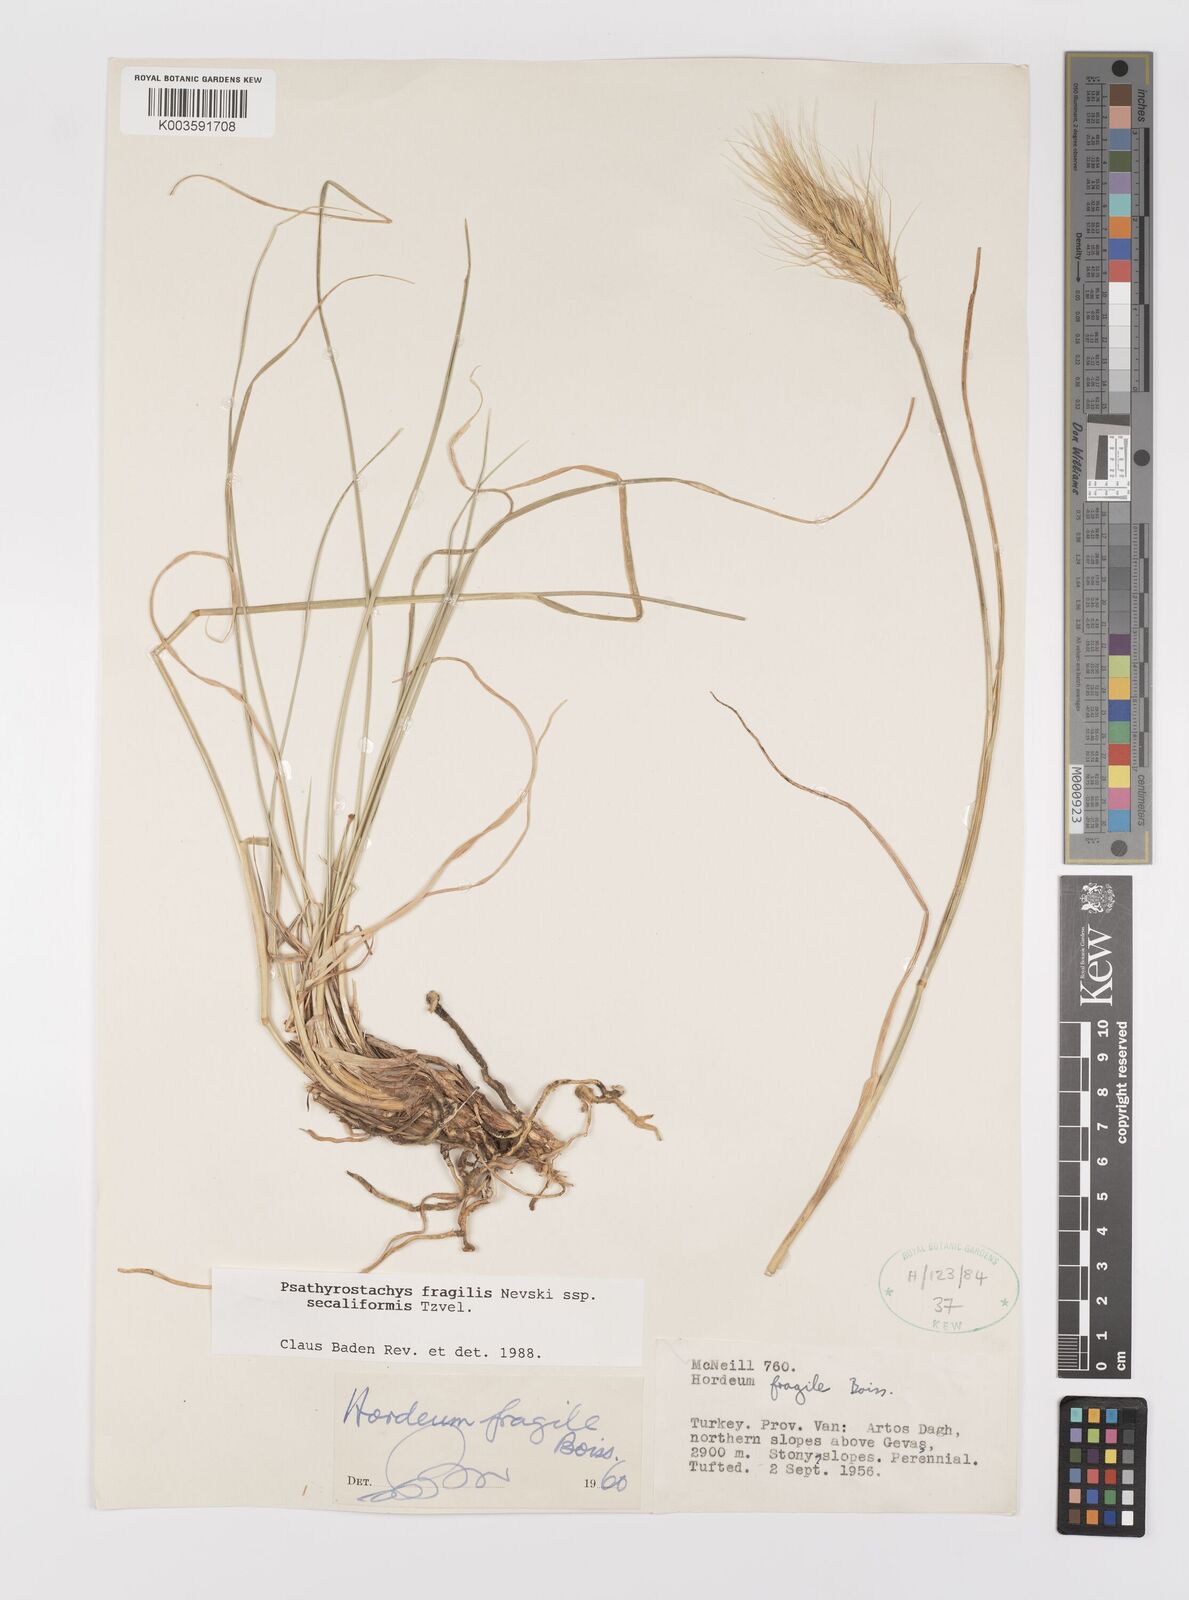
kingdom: Plantae
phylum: Tracheophyta
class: Liliopsida
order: Poales
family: Poaceae
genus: Psathyrostachys
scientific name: Psathyrostachys fragilis
